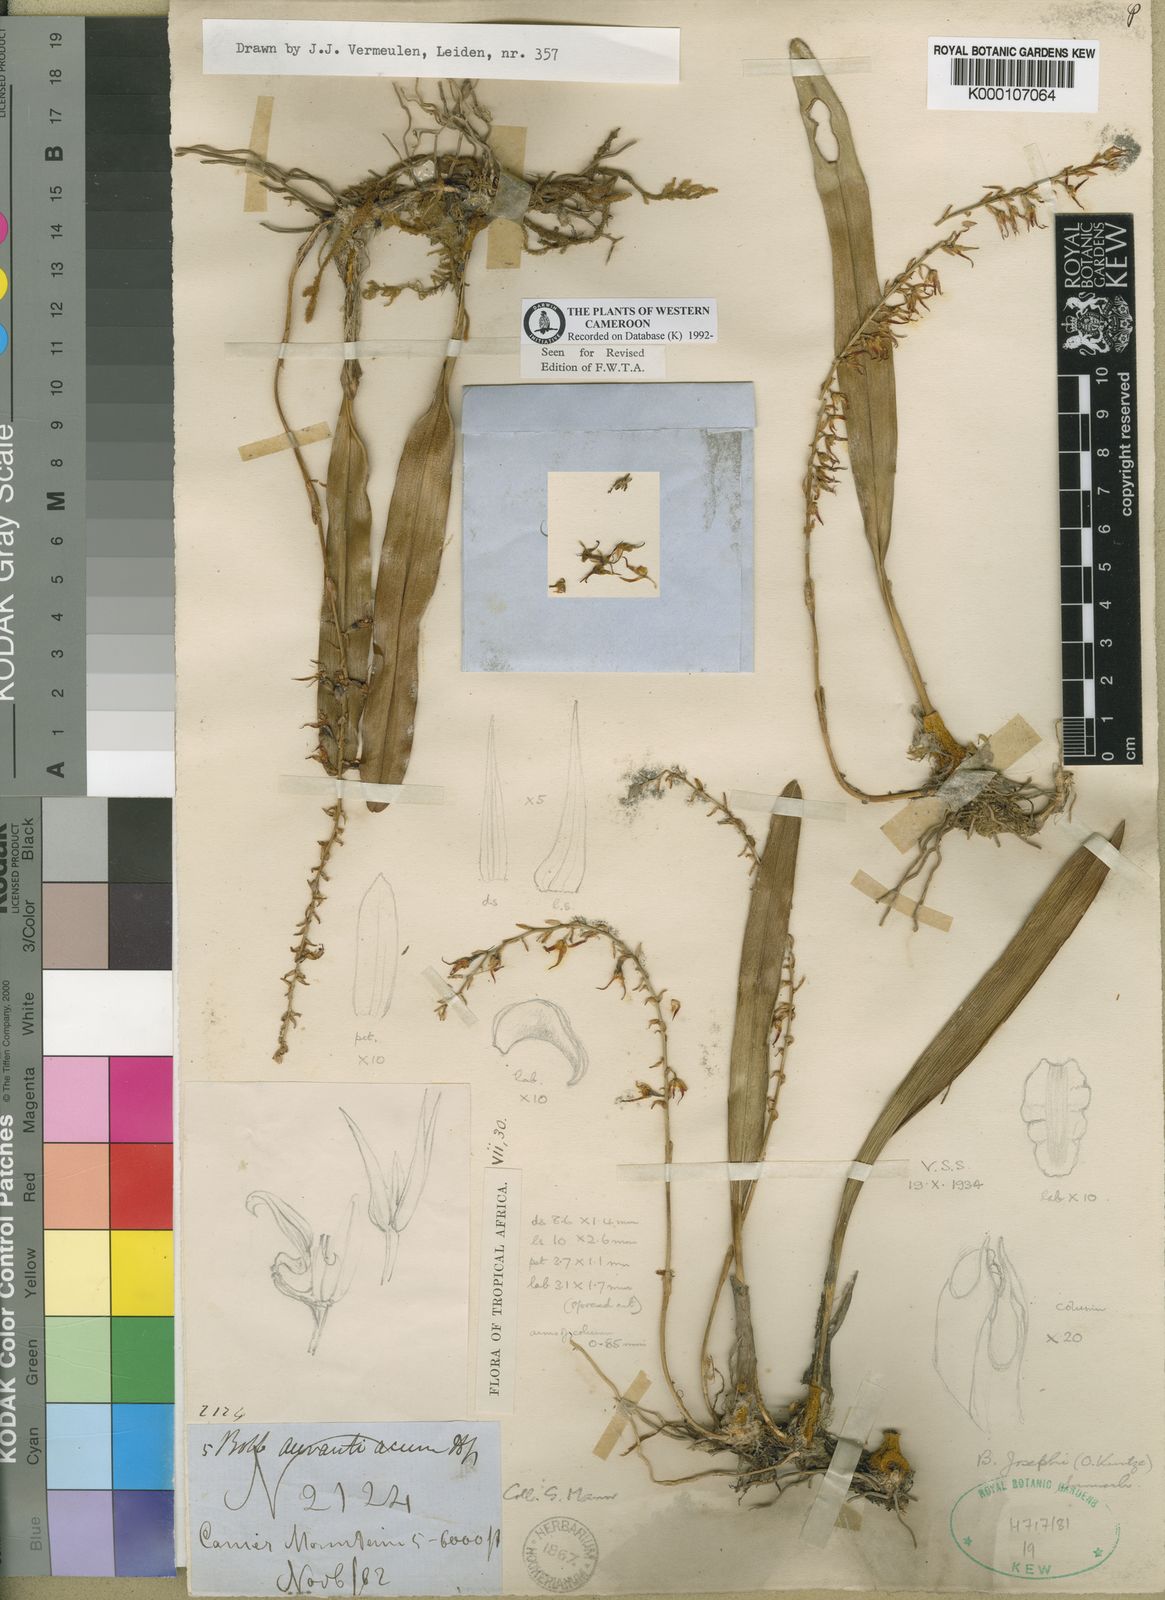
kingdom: Plantae
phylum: Tracheophyta
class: Liliopsida
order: Asparagales
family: Orchidaceae
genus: Bulbophyllum
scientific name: Bulbophyllum josephi
